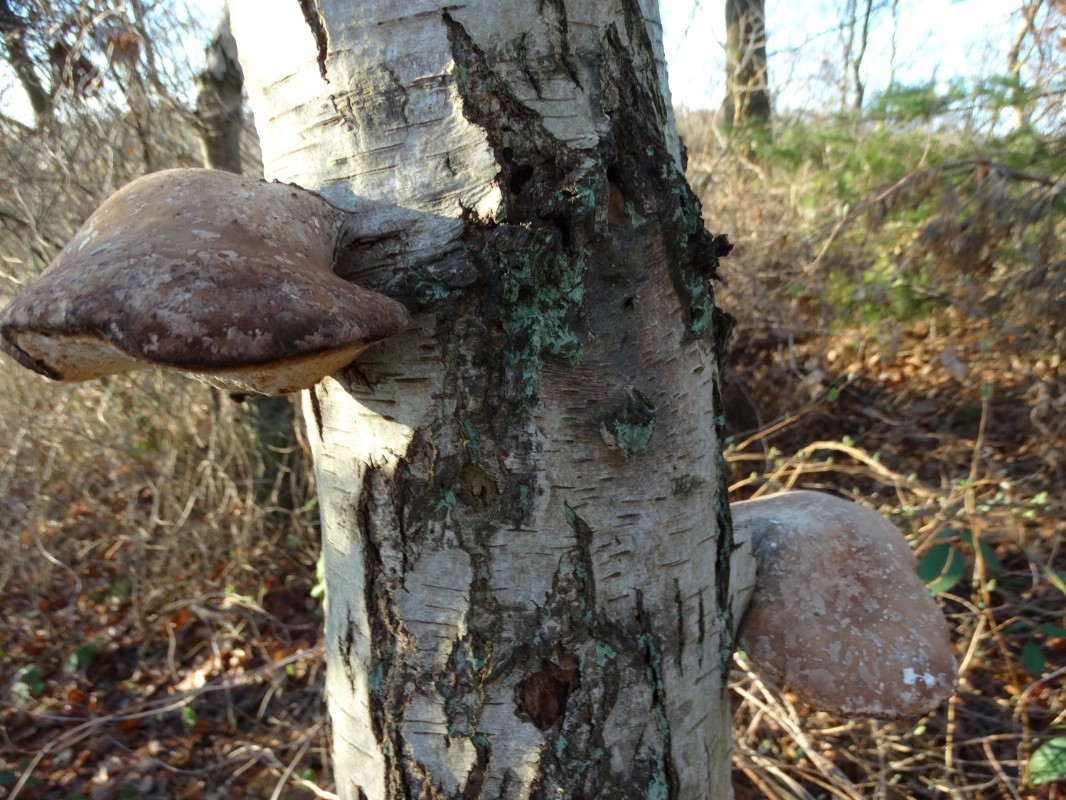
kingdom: Fungi
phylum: Basidiomycota
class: Agaricomycetes
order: Polyporales
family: Fomitopsidaceae
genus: Fomitopsis
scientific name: Fomitopsis betulina
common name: birkeporesvamp
